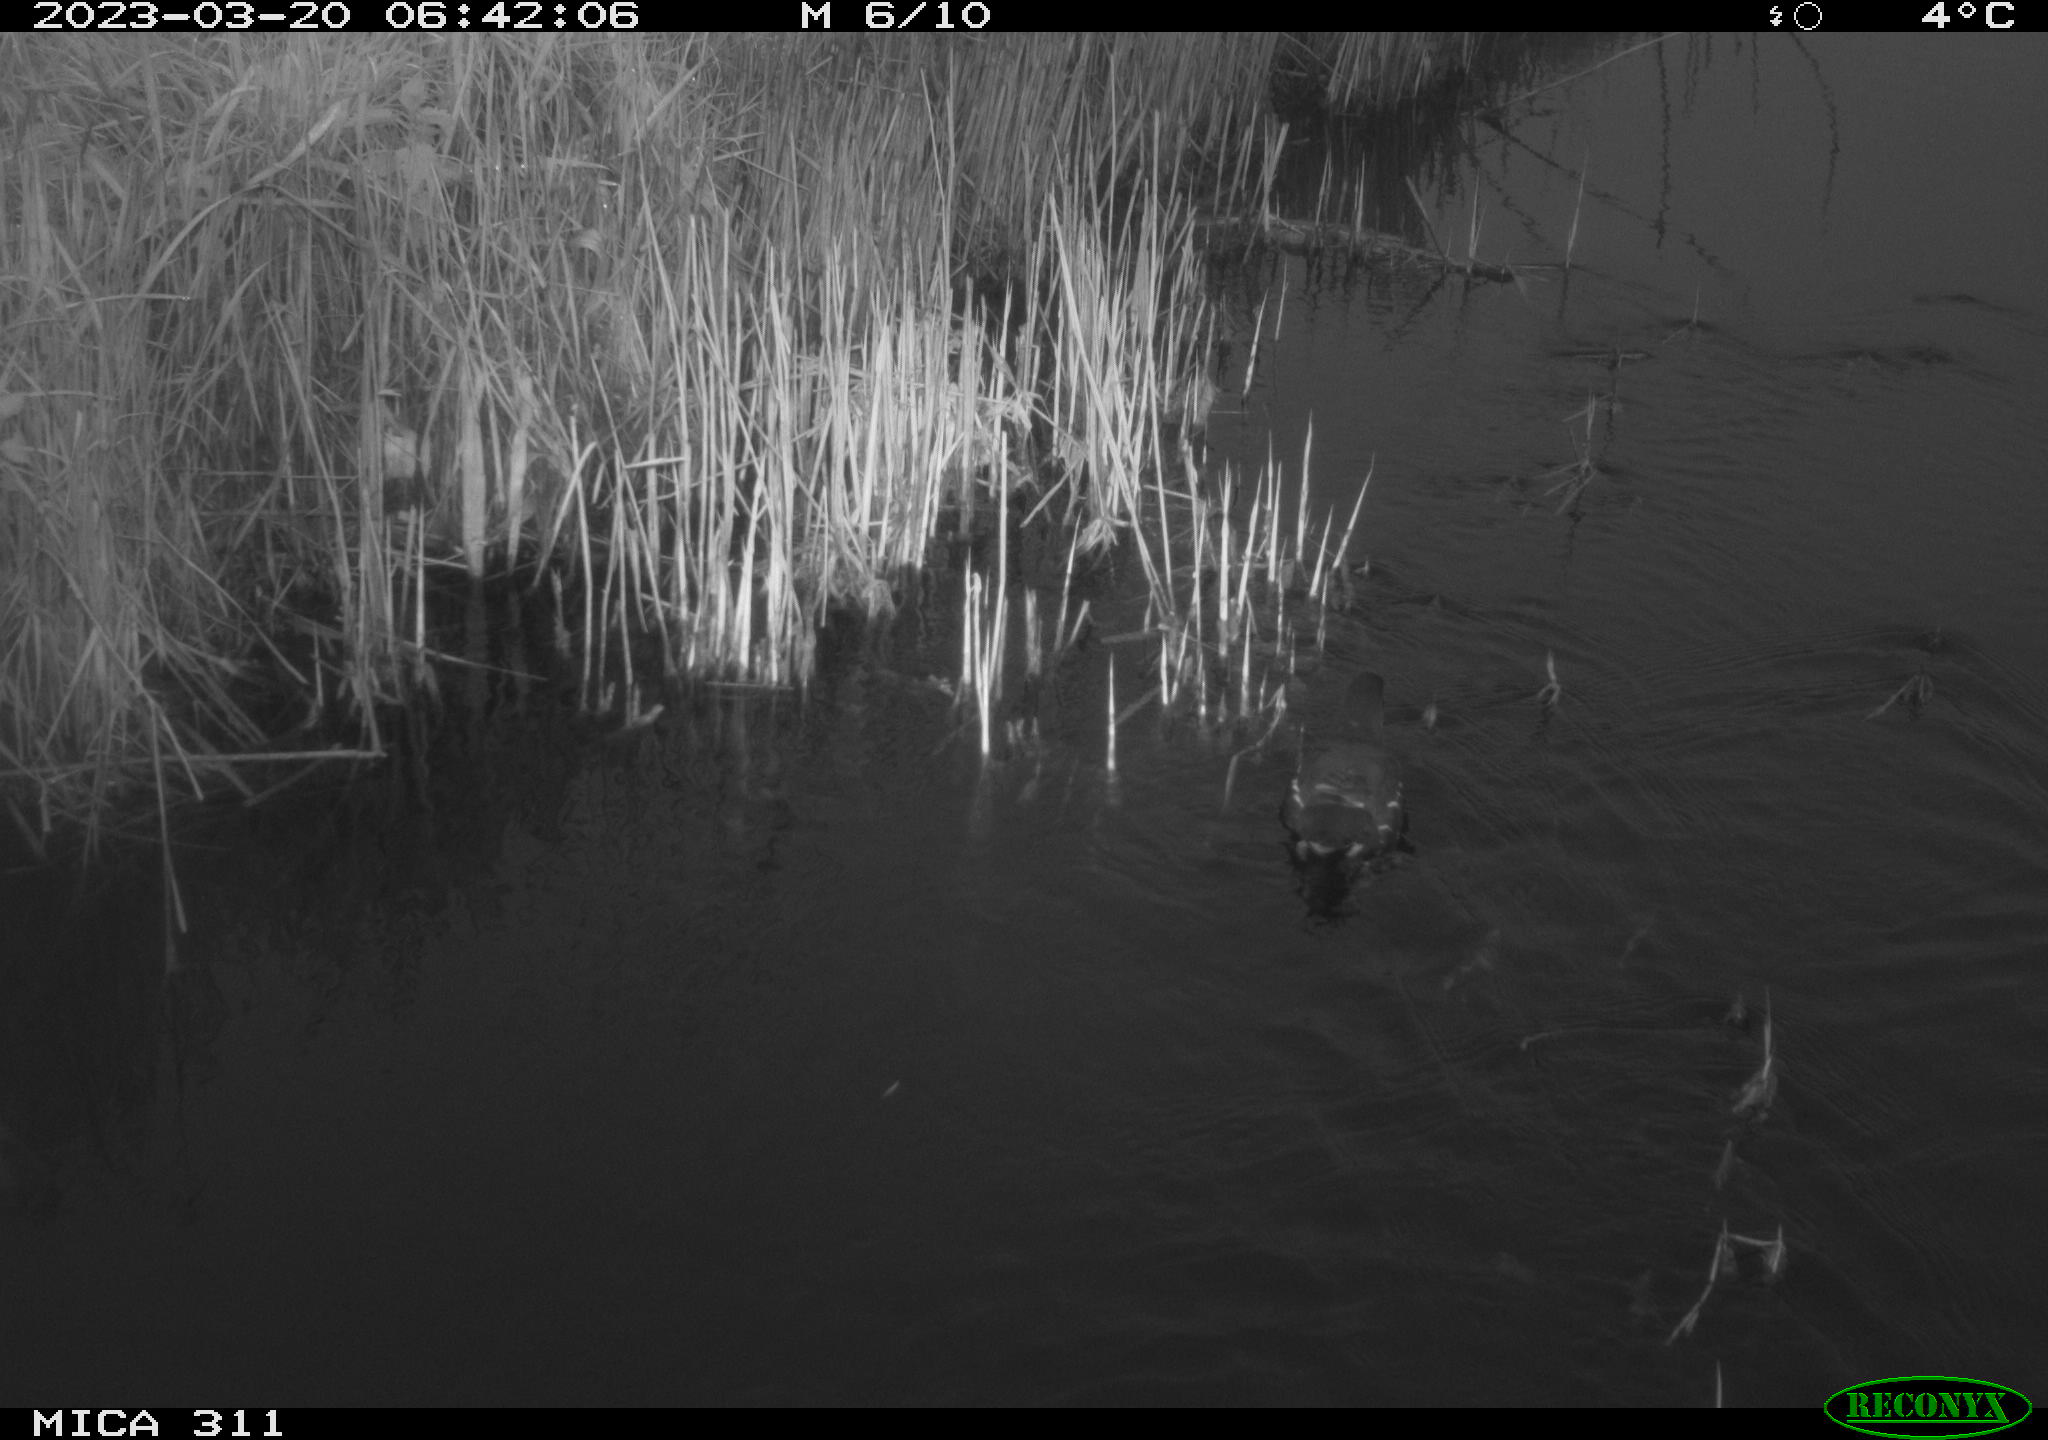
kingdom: Animalia
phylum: Chordata
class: Aves
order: Gruiformes
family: Rallidae
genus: Gallinula
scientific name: Gallinula chloropus
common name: Common moorhen
